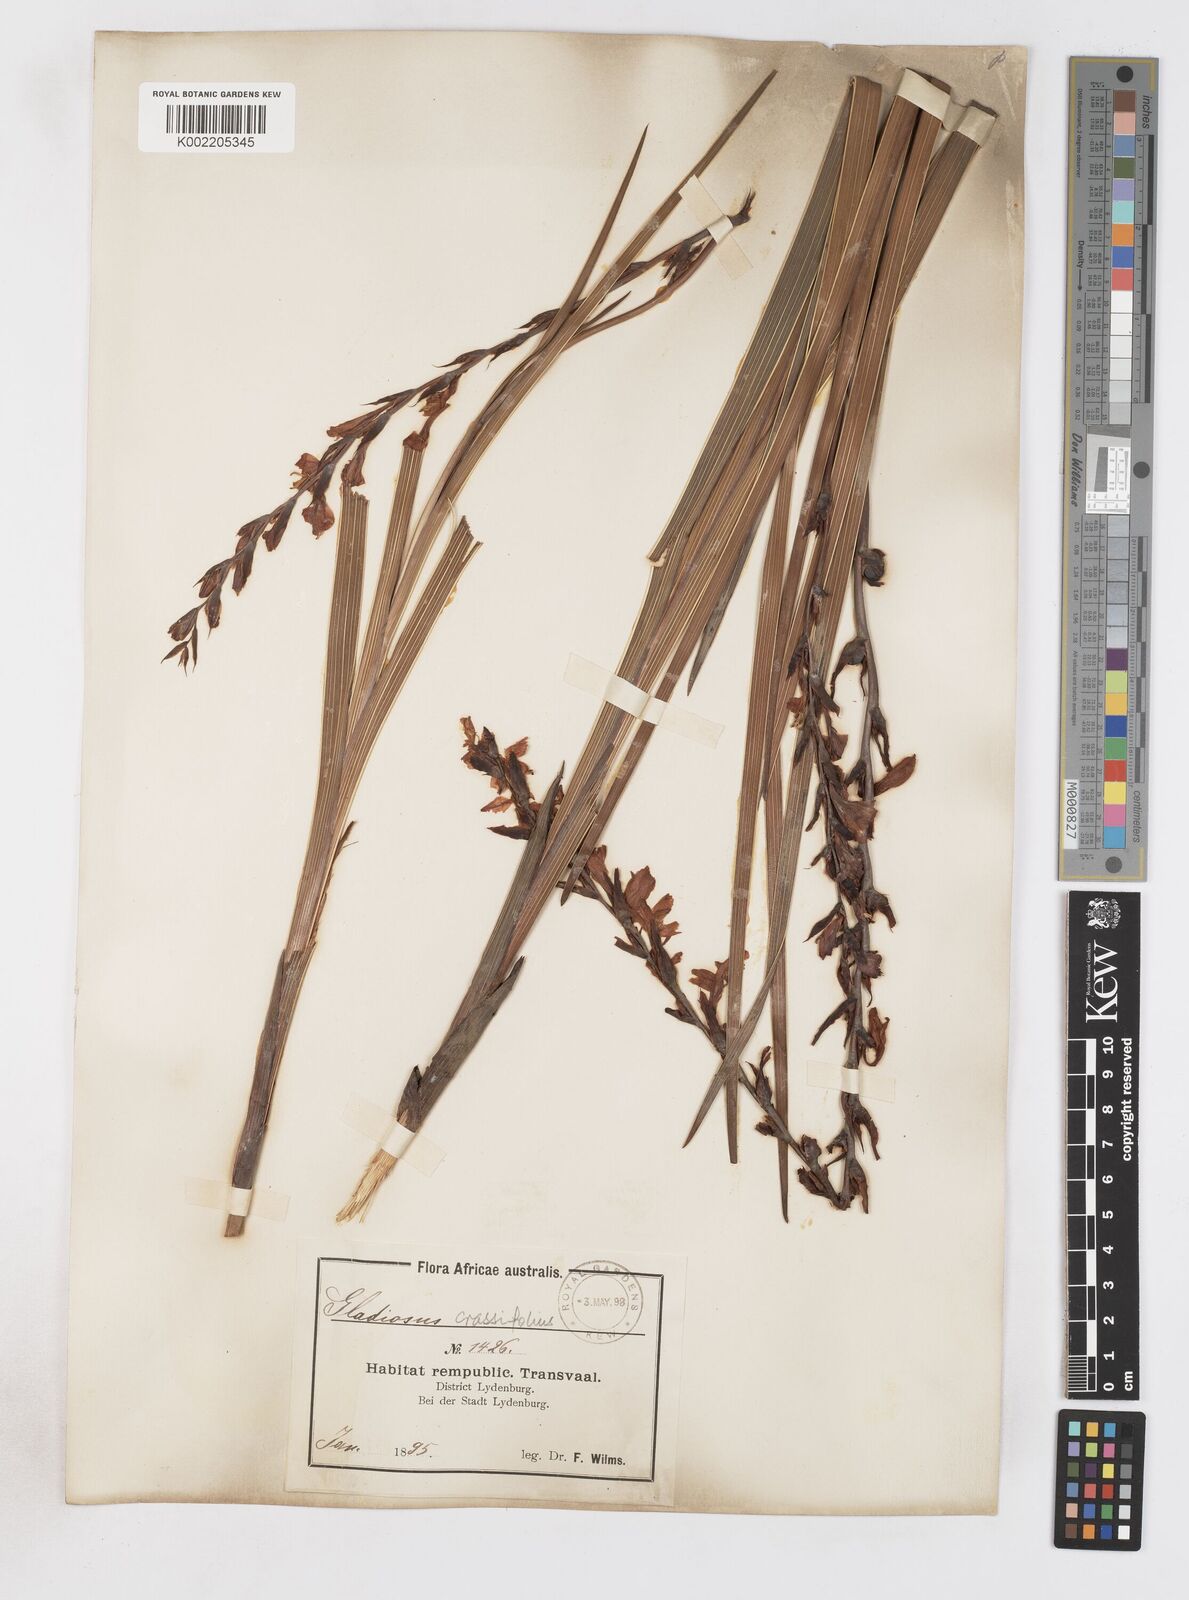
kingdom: Plantae
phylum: Tracheophyta
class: Liliopsida
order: Asparagales
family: Iridaceae
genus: Gladiolus
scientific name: Gladiolus crassifolius
